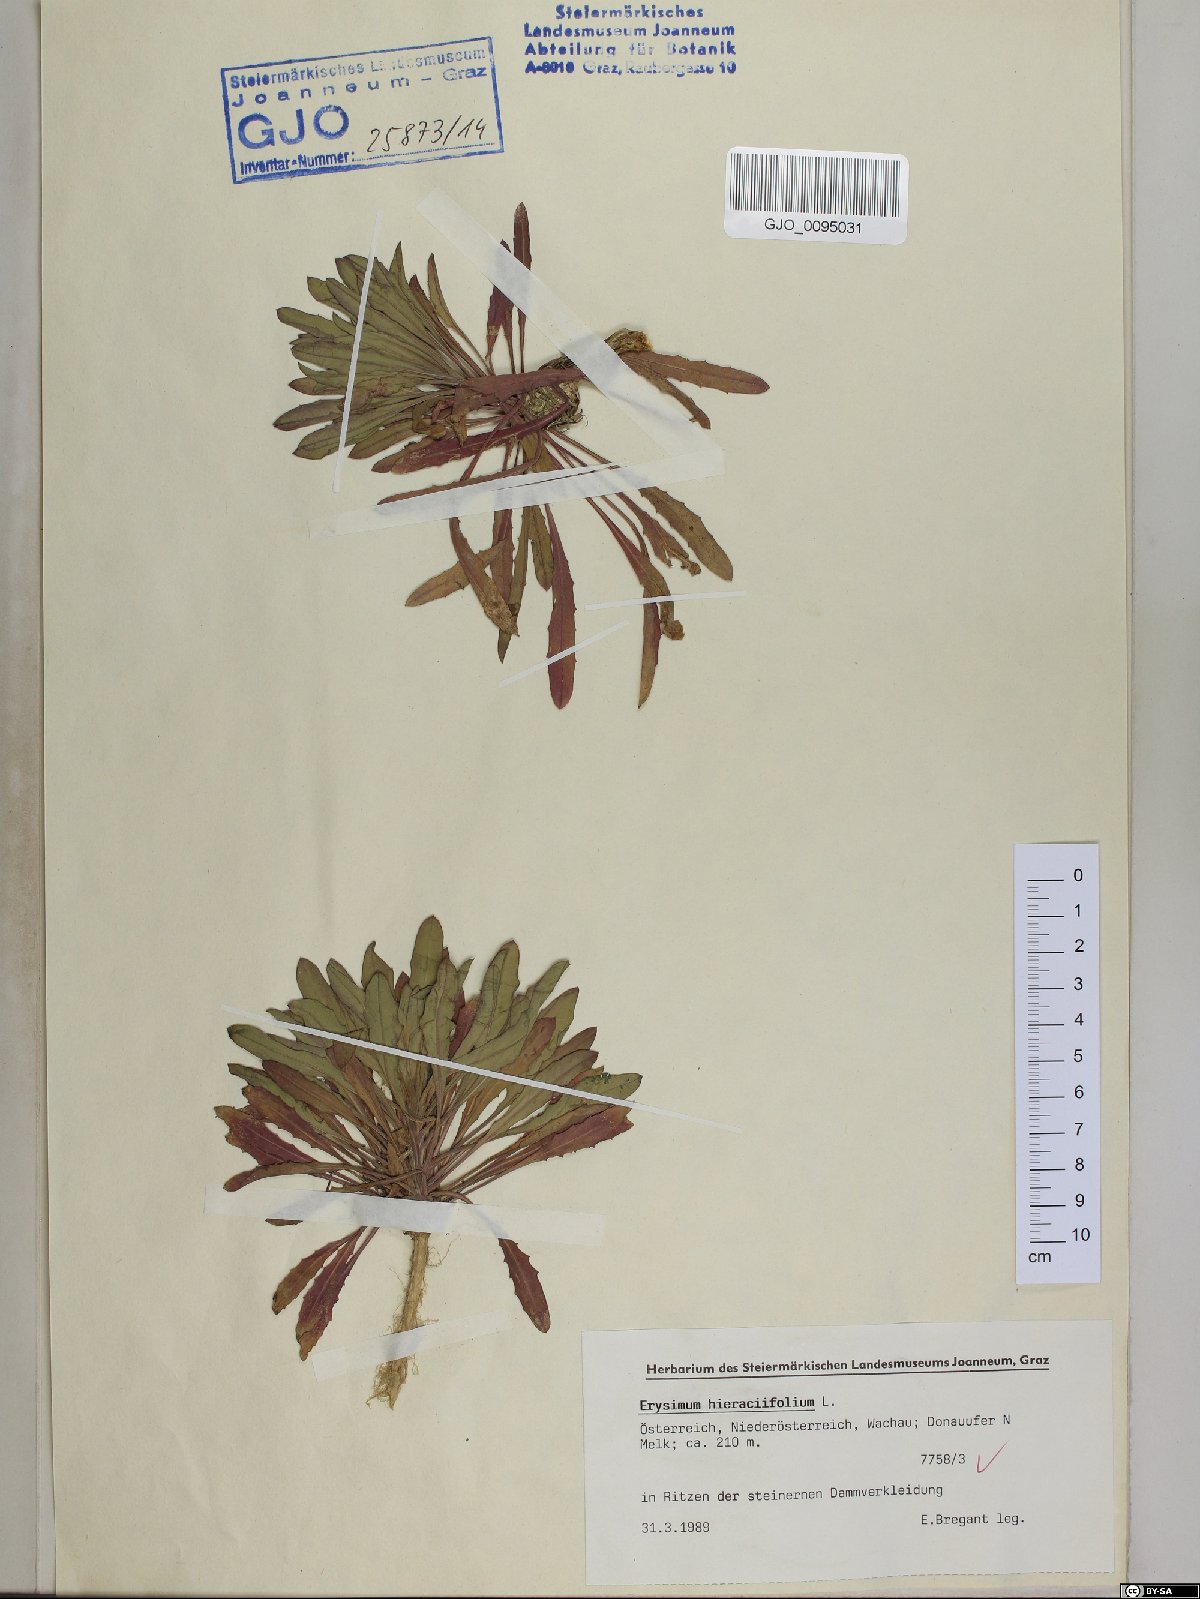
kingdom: Plantae
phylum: Tracheophyta
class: Magnoliopsida
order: Brassicales
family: Brassicaceae
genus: Erysimum
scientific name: Erysimum hieraciifolium
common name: European wallflower
